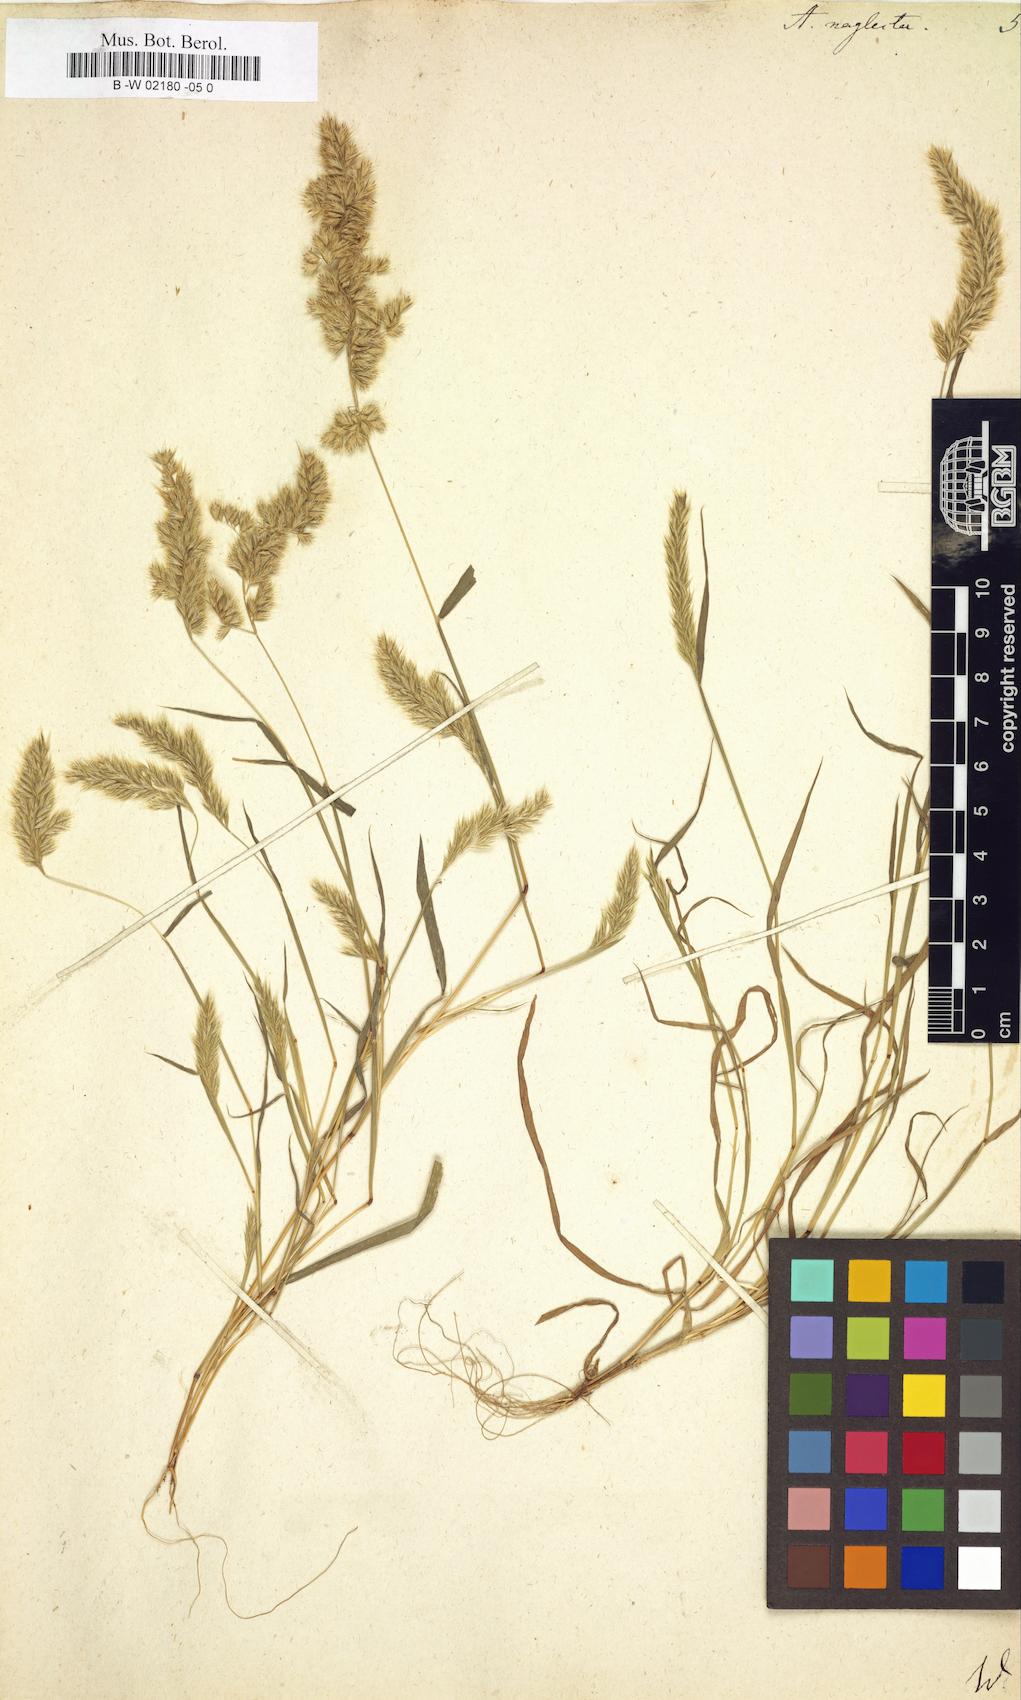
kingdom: Plantae
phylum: Tracheophyta
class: Liliopsida
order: Poales
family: Poaceae
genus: Trisetaria
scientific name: Trisetaria panicea
